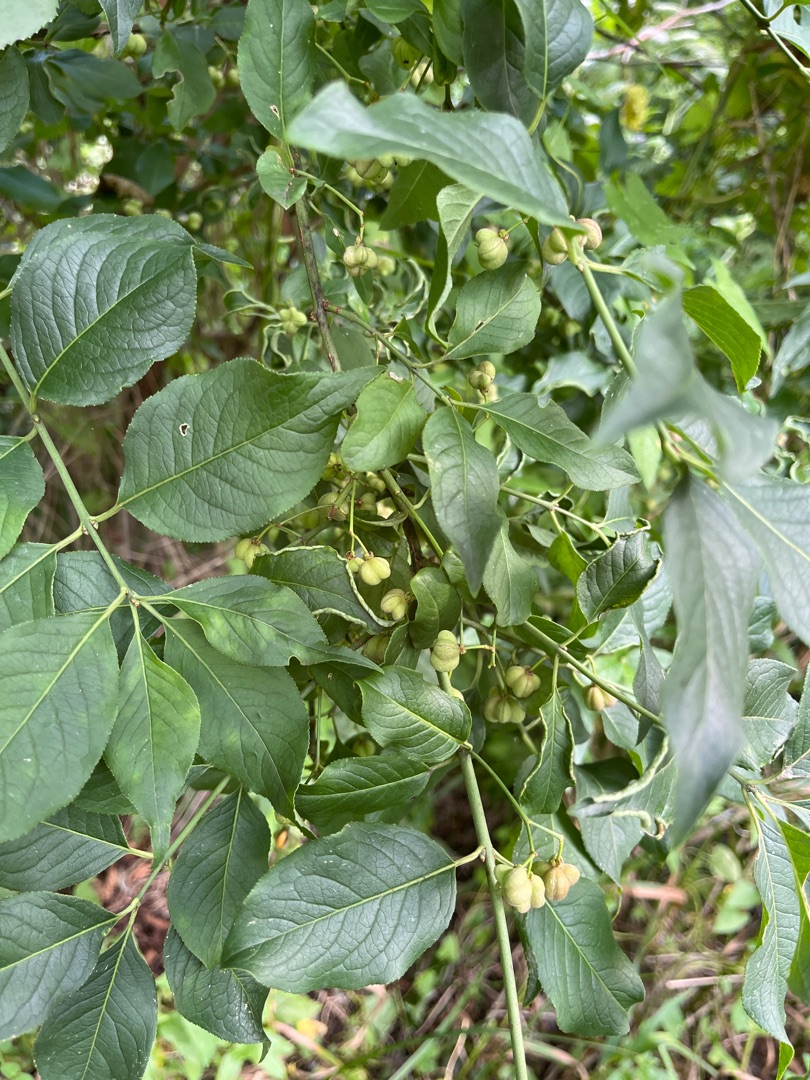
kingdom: Plantae
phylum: Tracheophyta
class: Magnoliopsida
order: Celastrales
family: Celastraceae
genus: Euonymus
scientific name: Euonymus europaeus
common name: Benved
